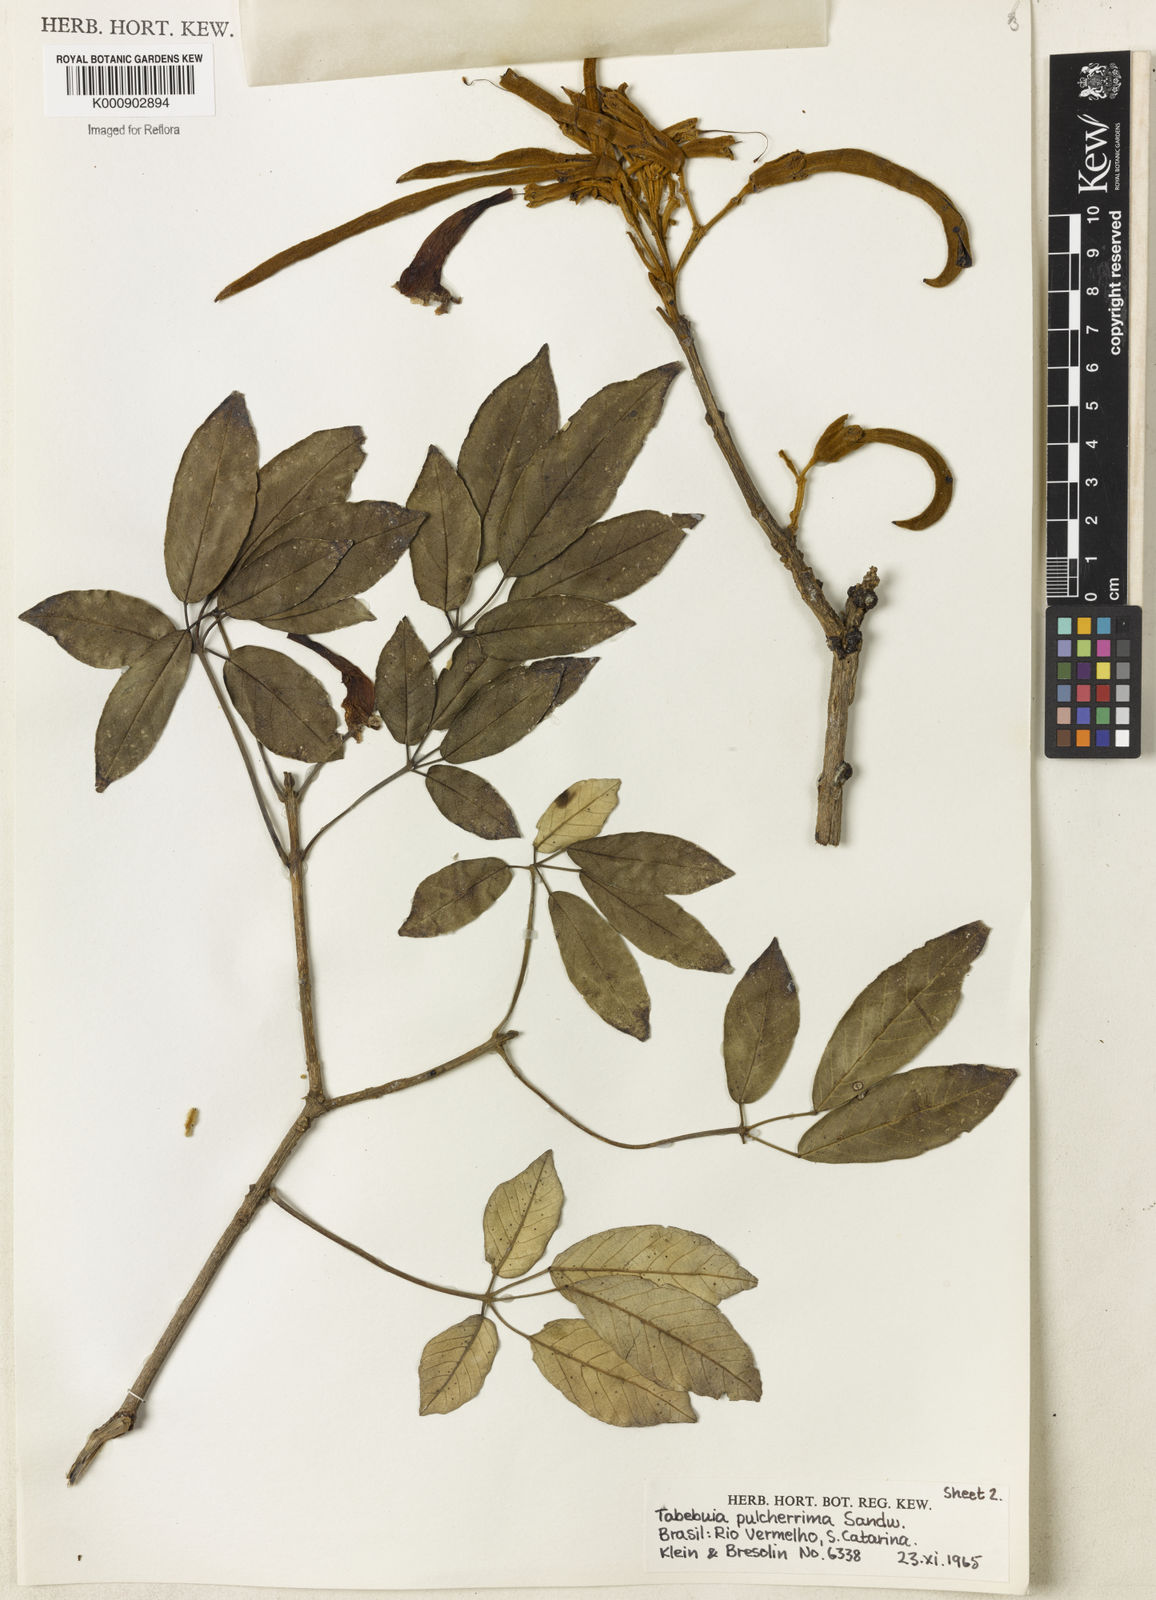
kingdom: Plantae
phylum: Tracheophyta
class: Magnoliopsida
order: Lamiales
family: Bignoniaceae
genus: Handroanthus
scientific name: Handroanthus pulcherrimus
